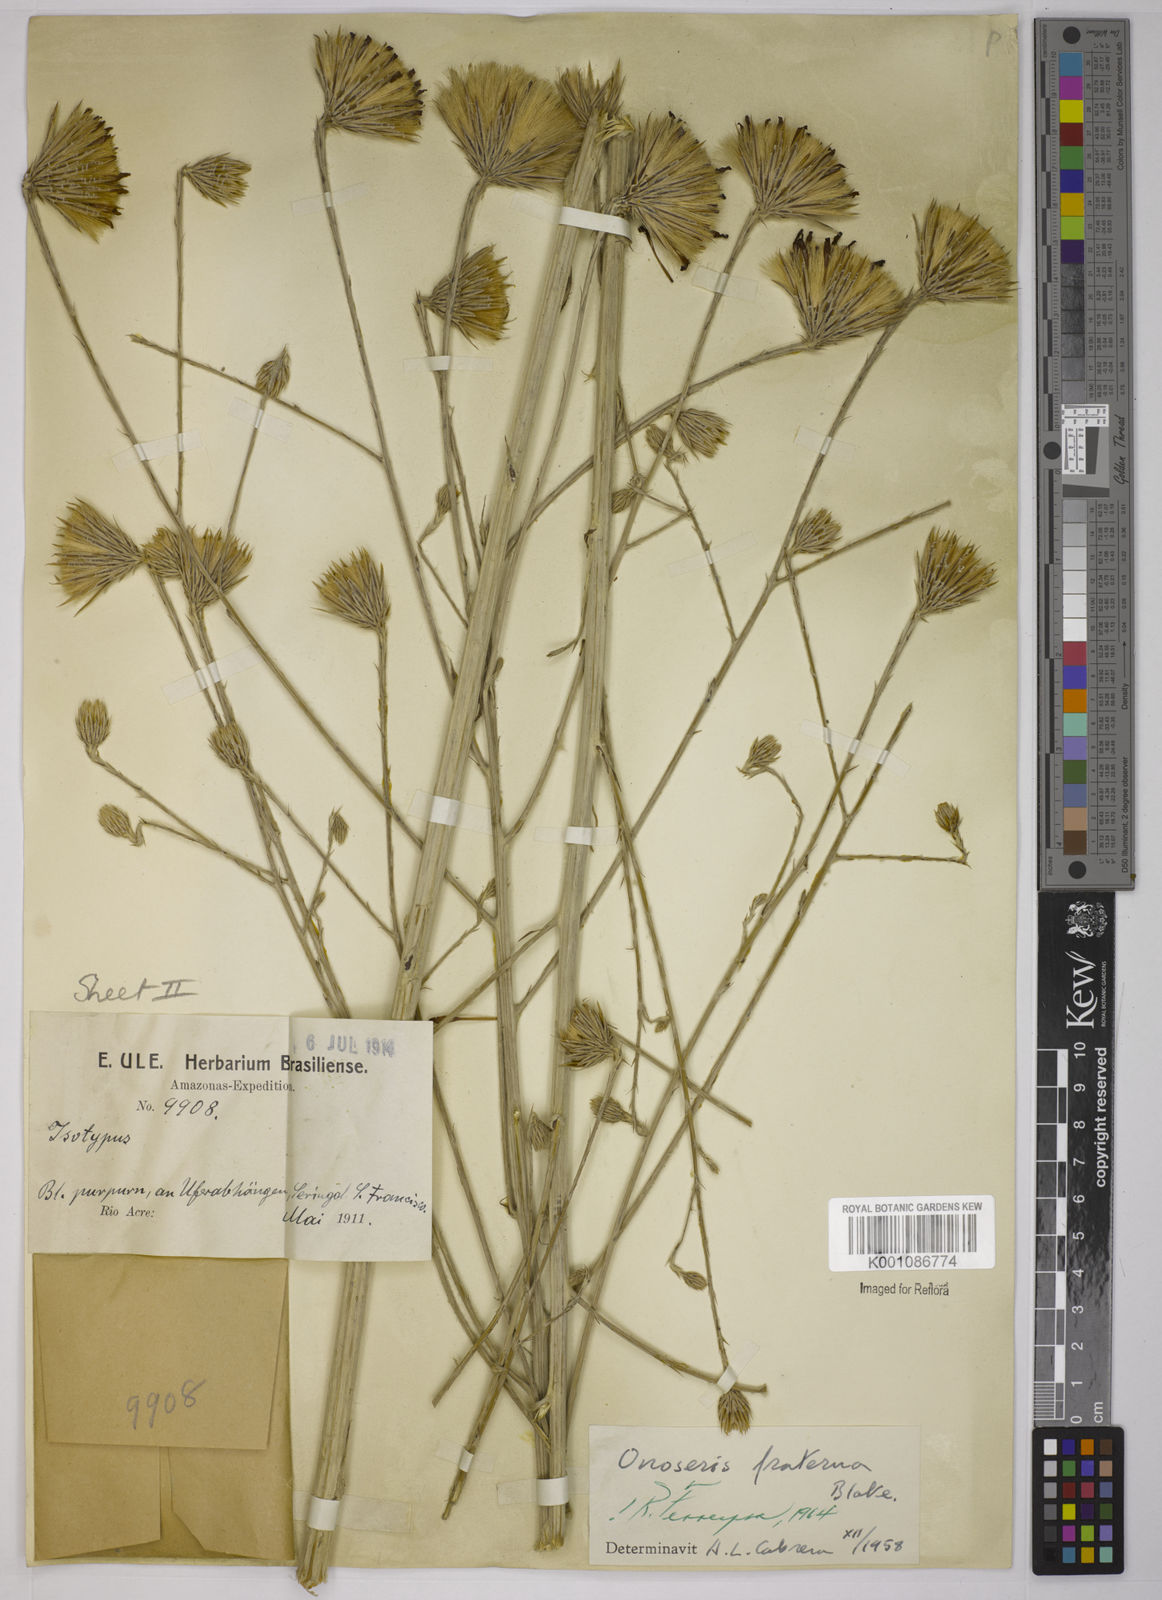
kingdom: Plantae
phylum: Tracheophyta
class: Magnoliopsida
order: Asterales
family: Asteraceae
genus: Onoseris
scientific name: Onoseris fraterna
